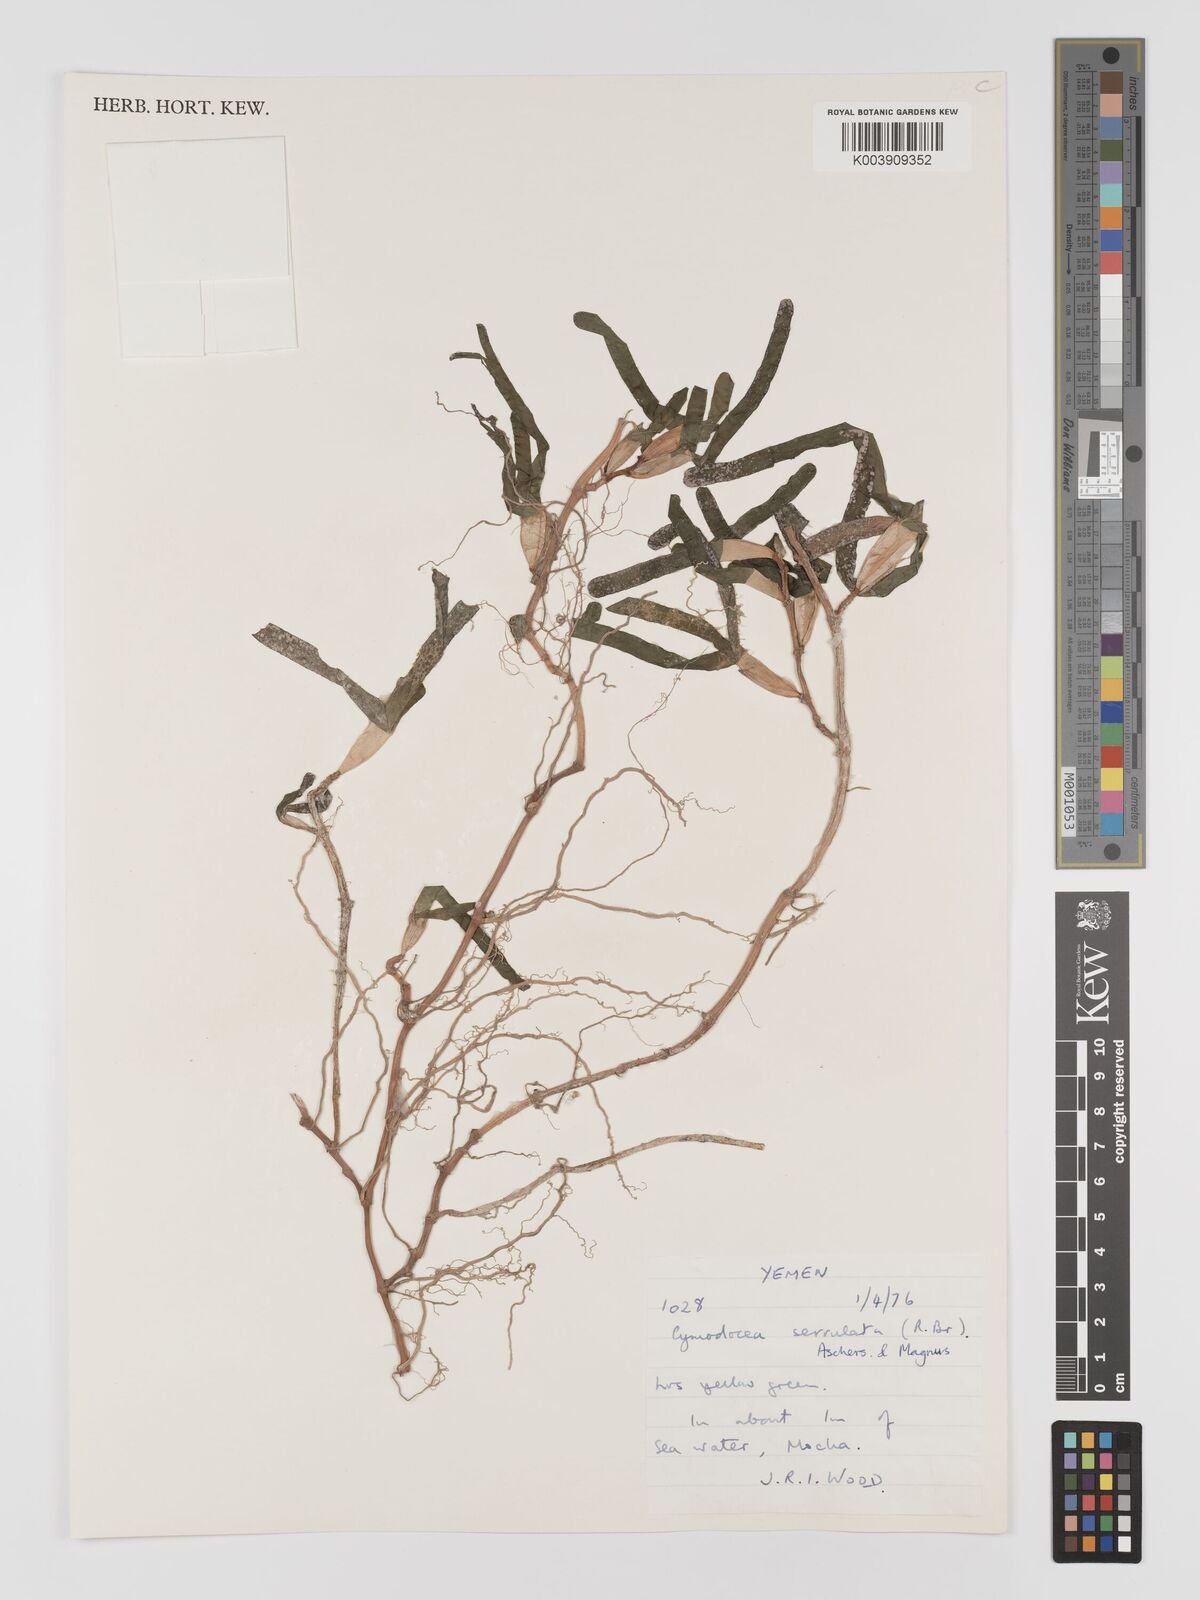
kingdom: Plantae
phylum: Tracheophyta
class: Liliopsida
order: Alismatales
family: Cymodoceaceae
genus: Oceana
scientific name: Oceana serrulata
